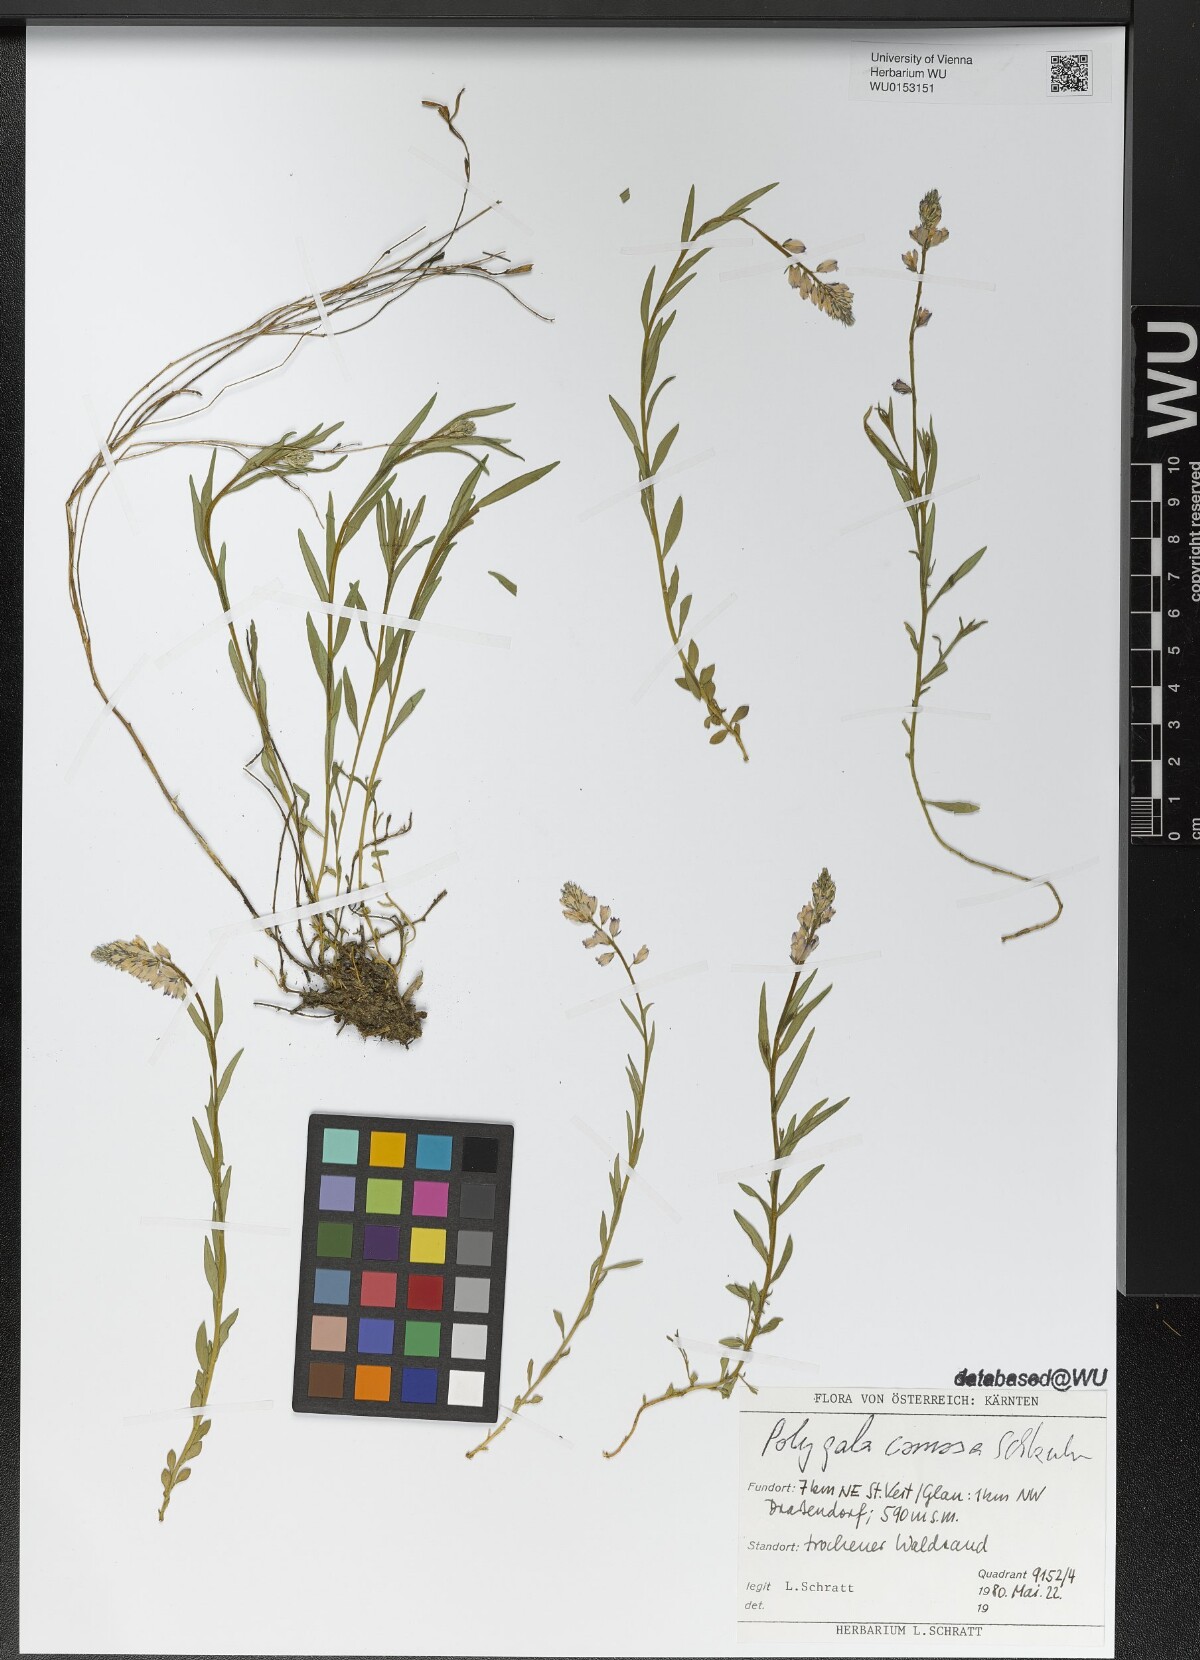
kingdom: Plantae
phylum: Tracheophyta
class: Magnoliopsida
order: Fabales
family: Polygalaceae
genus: Polygala
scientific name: Polygala comosa
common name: Tufted milkwort
